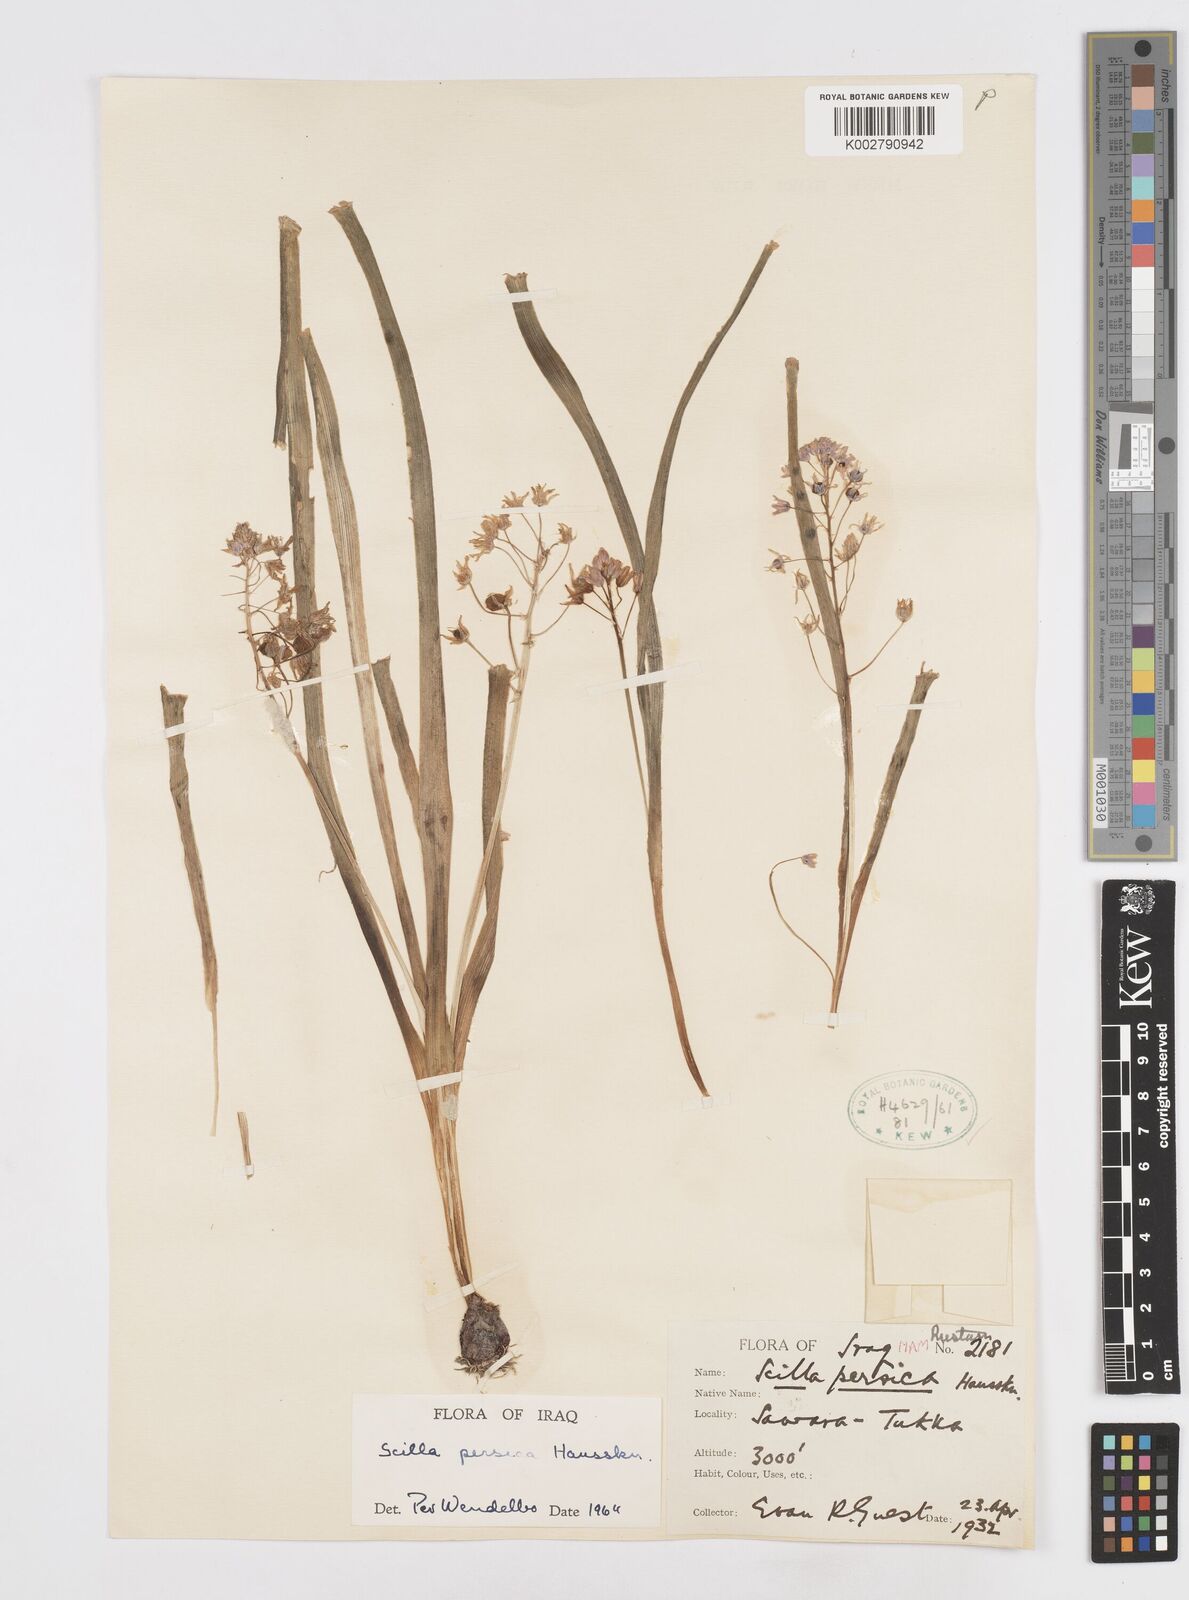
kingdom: Plantae
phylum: Tracheophyta
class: Liliopsida
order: Asparagales
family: Asparagaceae
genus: Zagrosia
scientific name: Zagrosia persica
